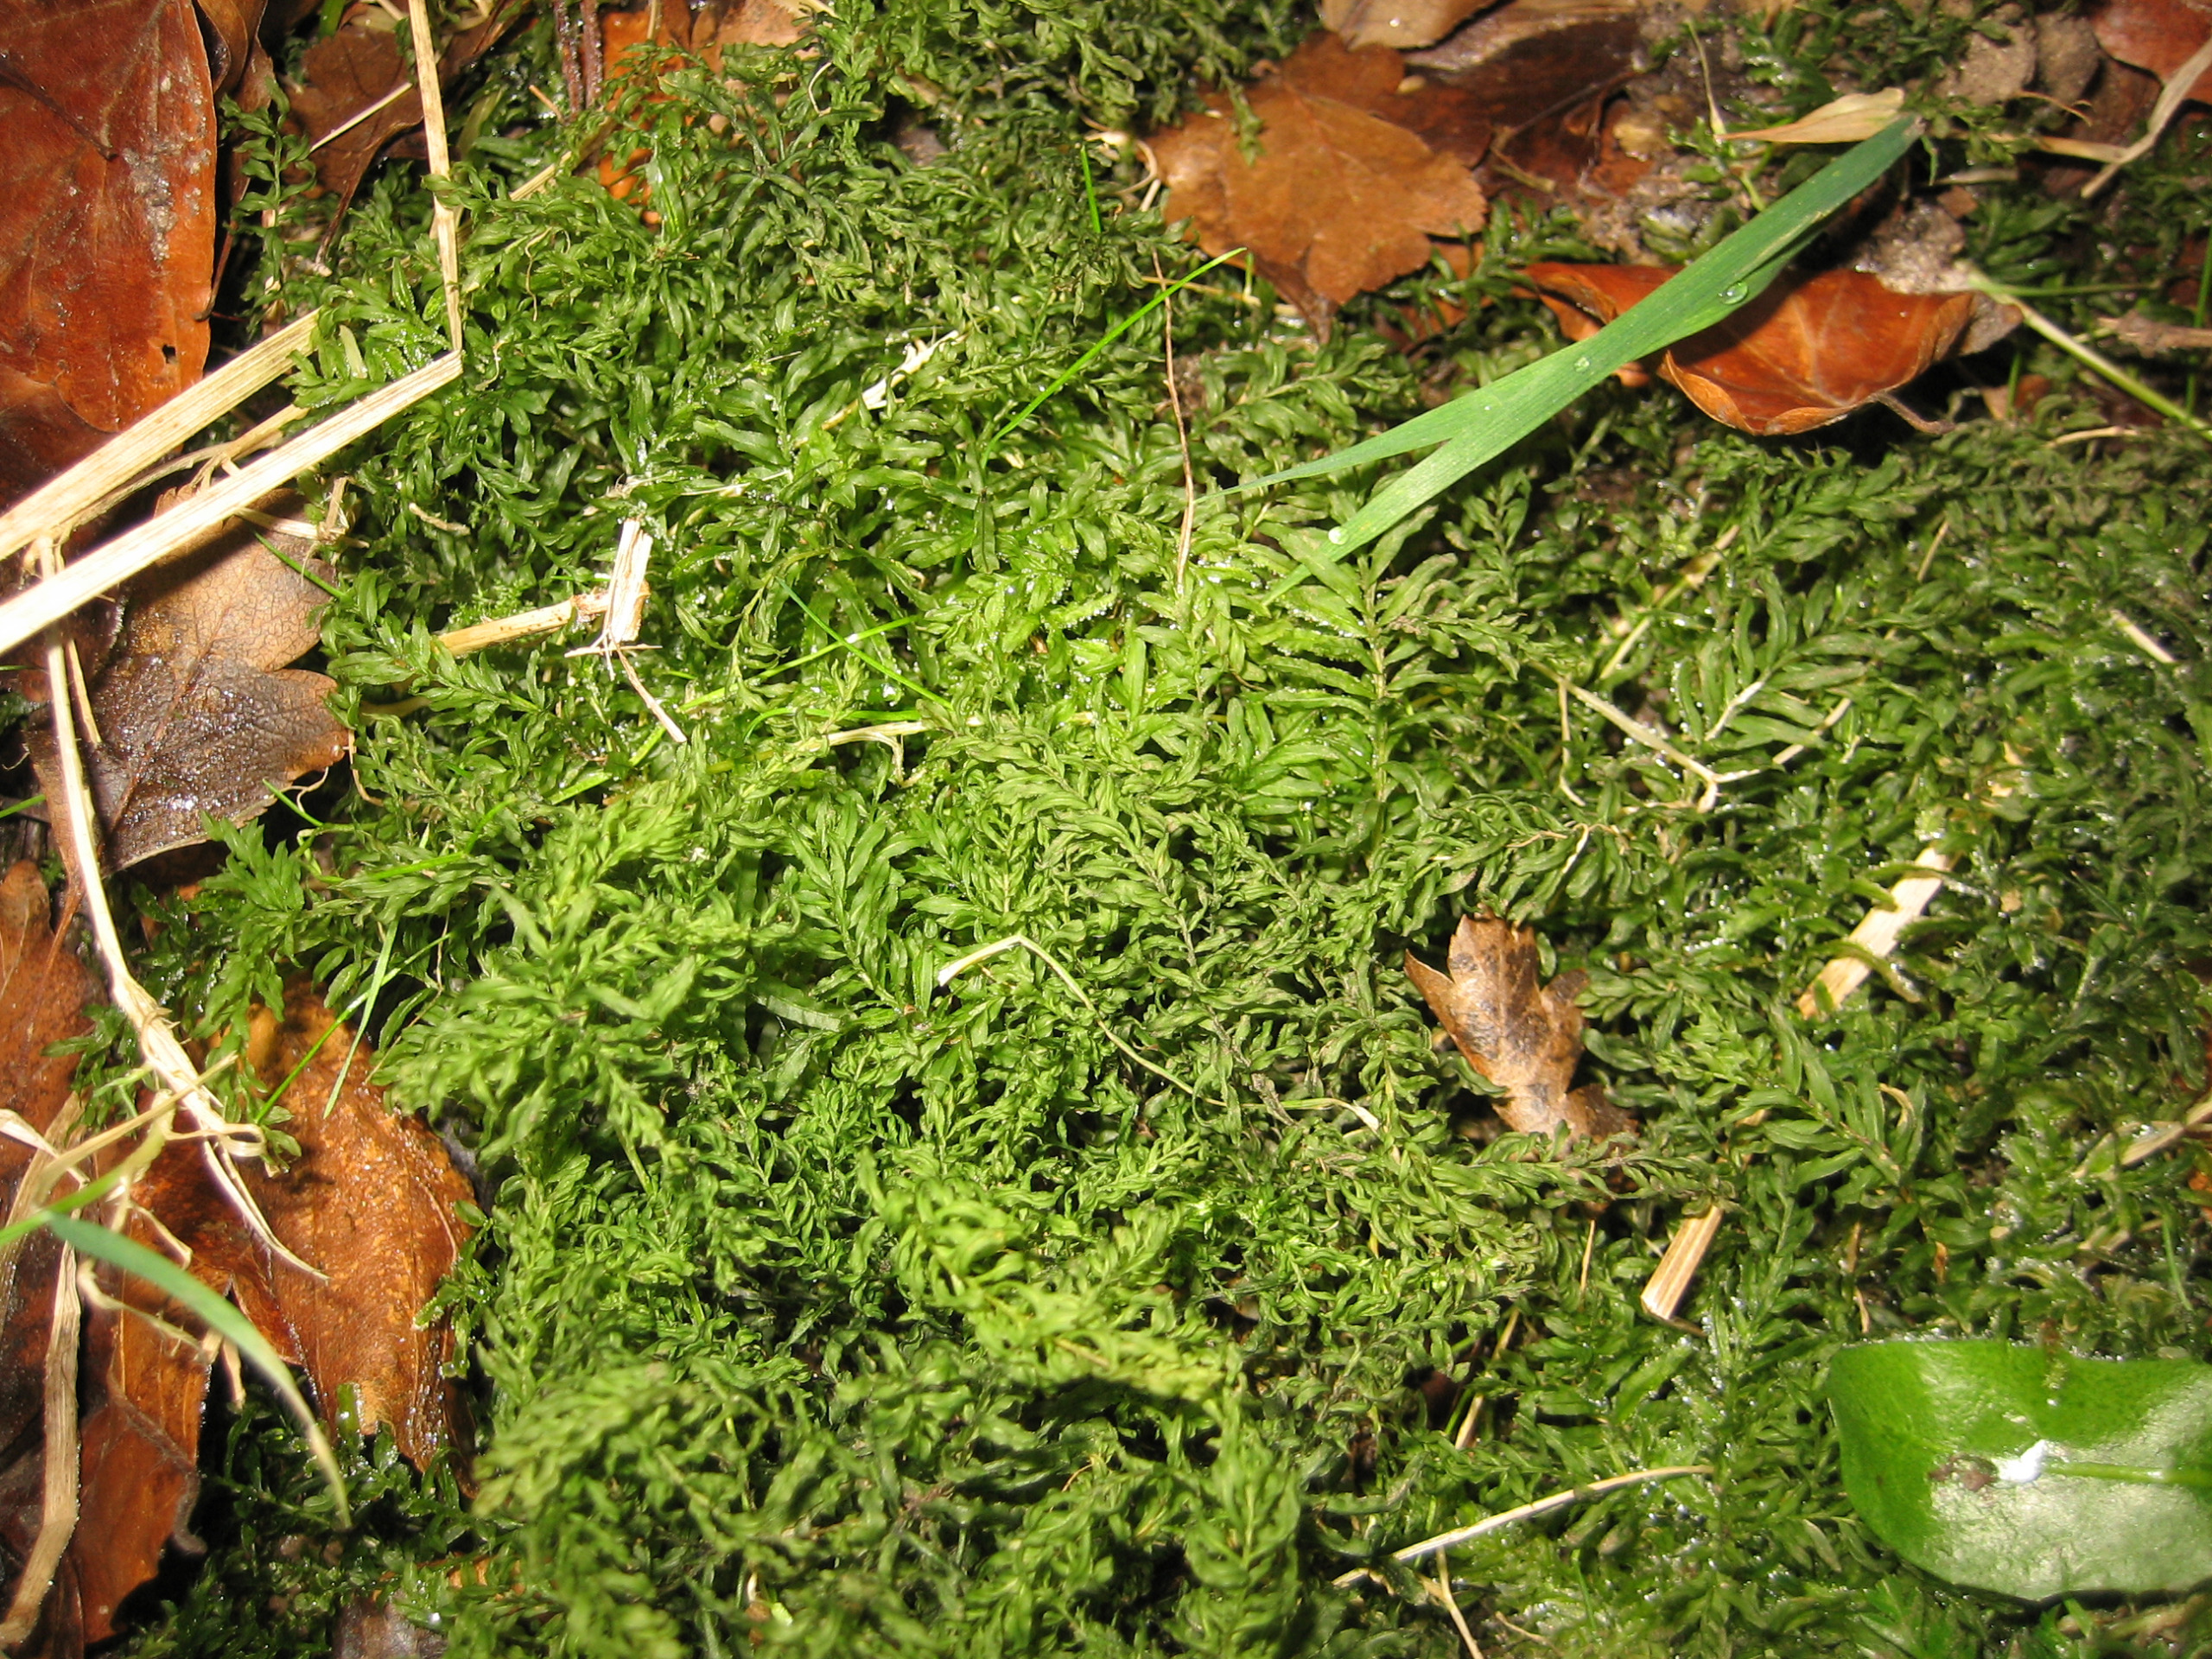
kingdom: Plantae
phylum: Bryophyta
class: Bryopsida
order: Bryales
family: Mniaceae
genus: Plagiomnium
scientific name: Plagiomnium undulatum
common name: Bølget krybstjerne
